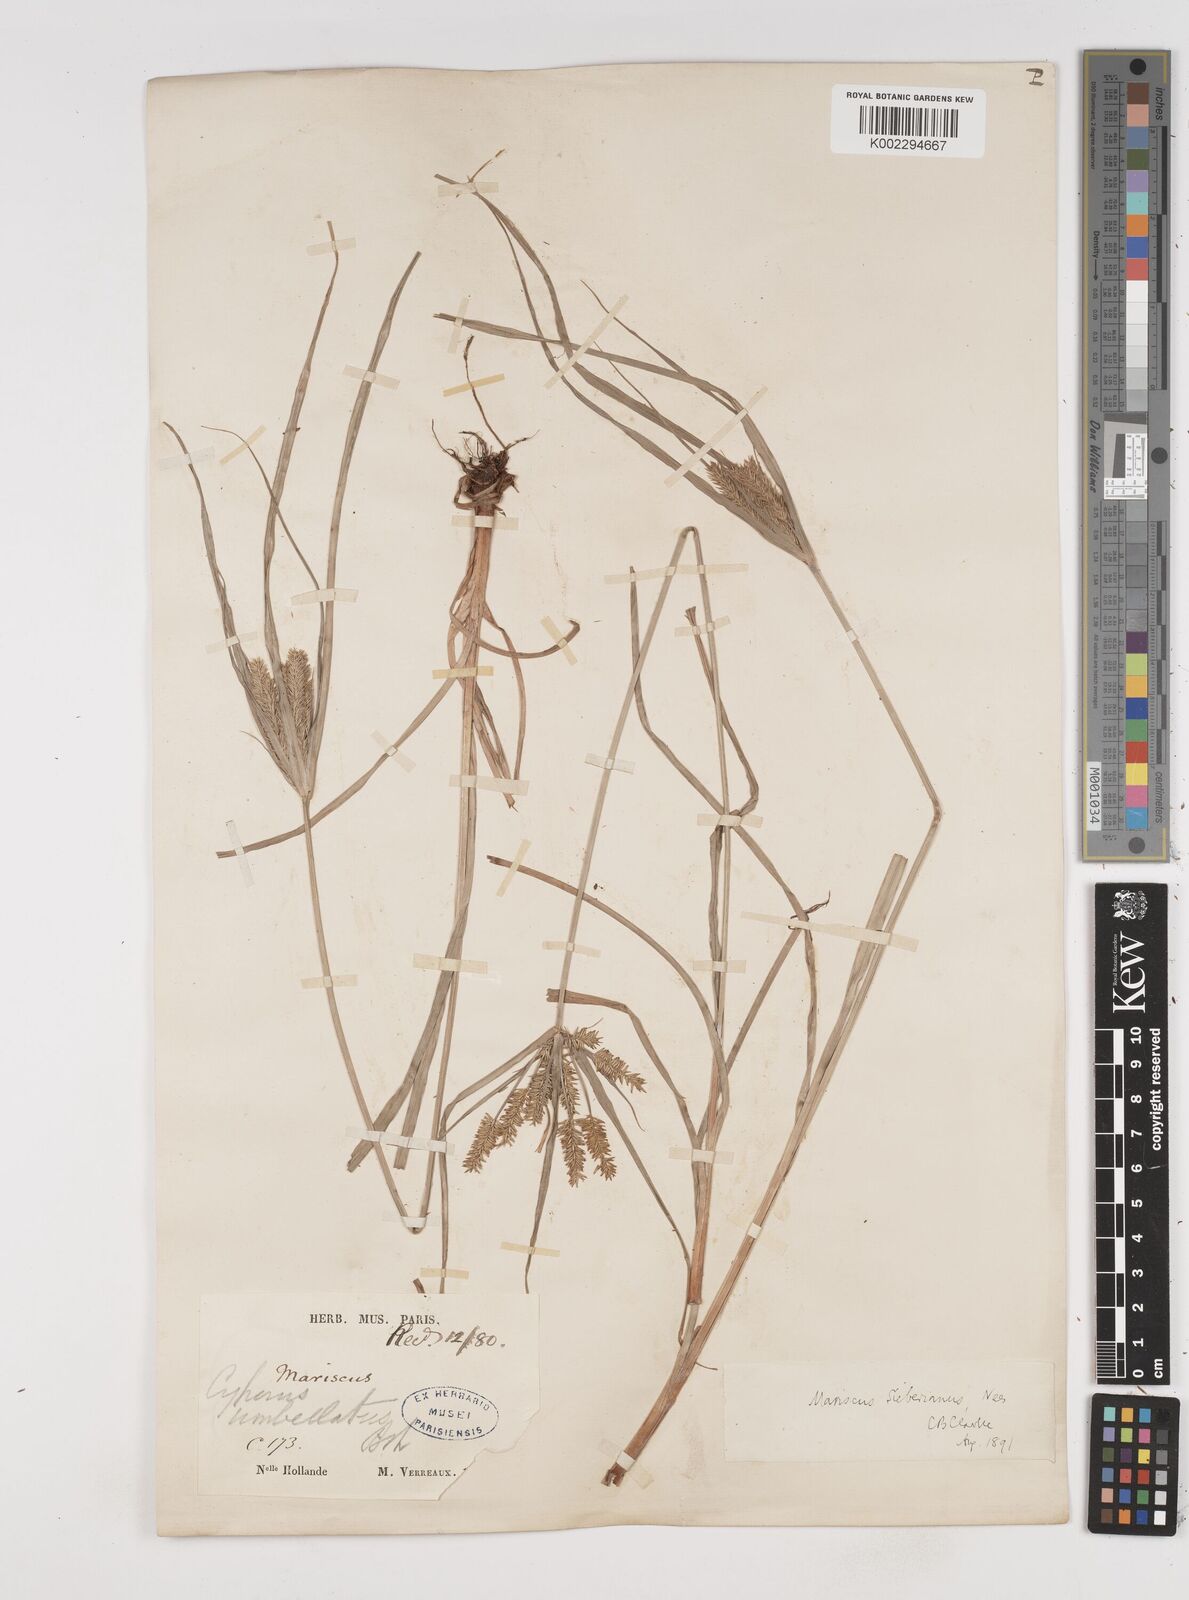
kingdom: Plantae
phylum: Tracheophyta
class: Liliopsida
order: Poales
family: Cyperaceae
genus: Cyperus
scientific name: Cyperus cyperoides
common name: Pacific island flat sedge
